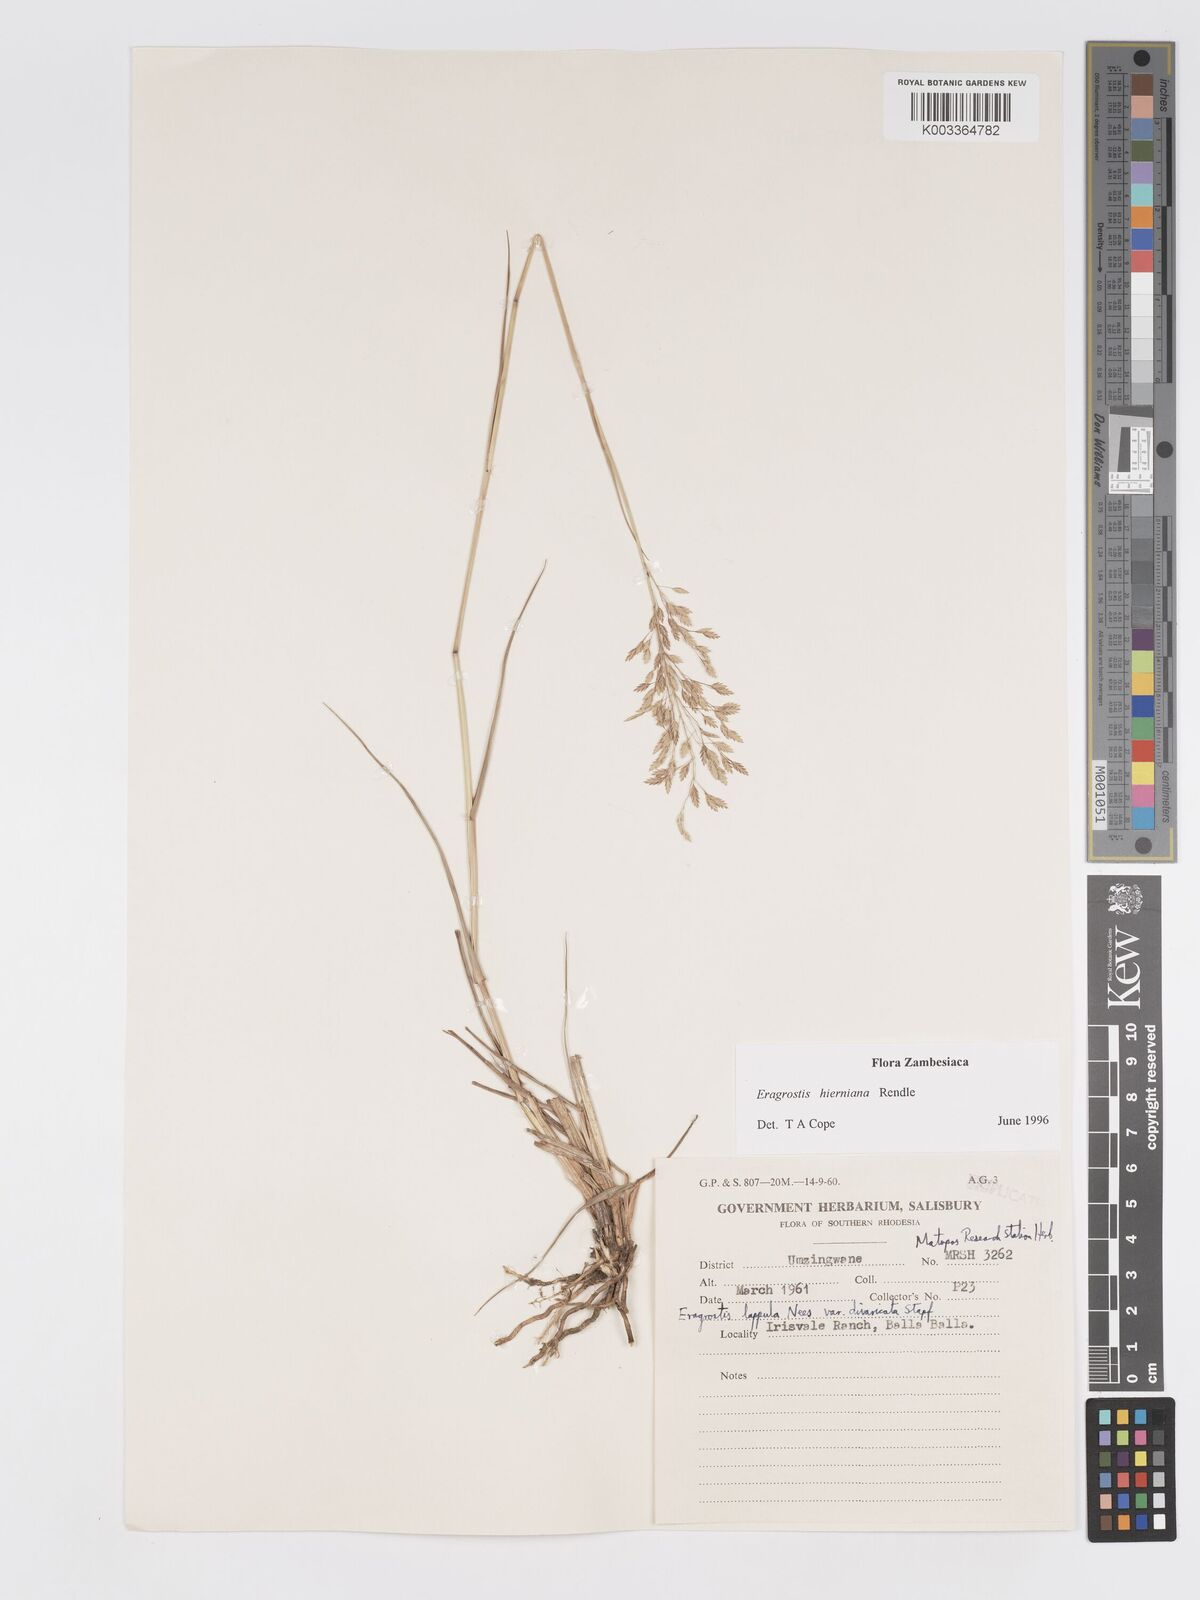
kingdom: Plantae
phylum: Tracheophyta
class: Liliopsida
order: Poales
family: Poaceae
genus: Eragrostis
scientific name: Eragrostis hierniana
